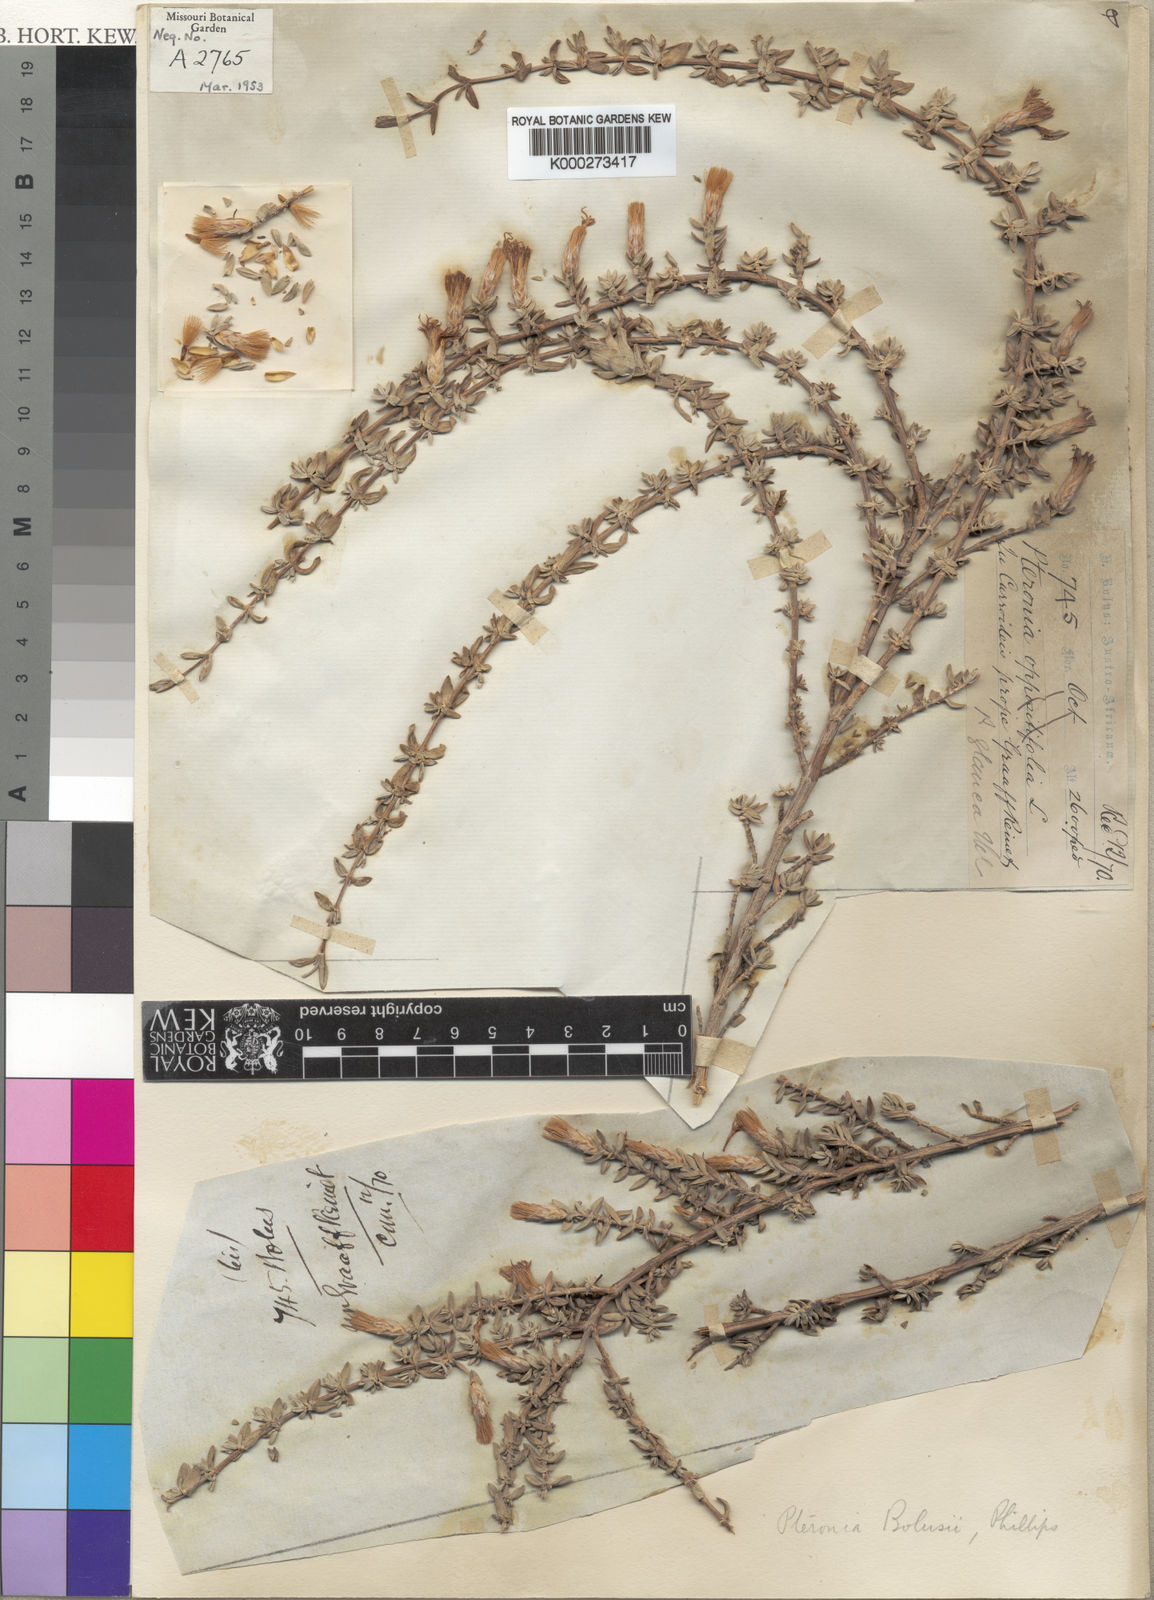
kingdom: Plantae
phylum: Tracheophyta
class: Magnoliopsida
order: Asterales
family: Asteraceae
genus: Pteronia
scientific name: Pteronia
